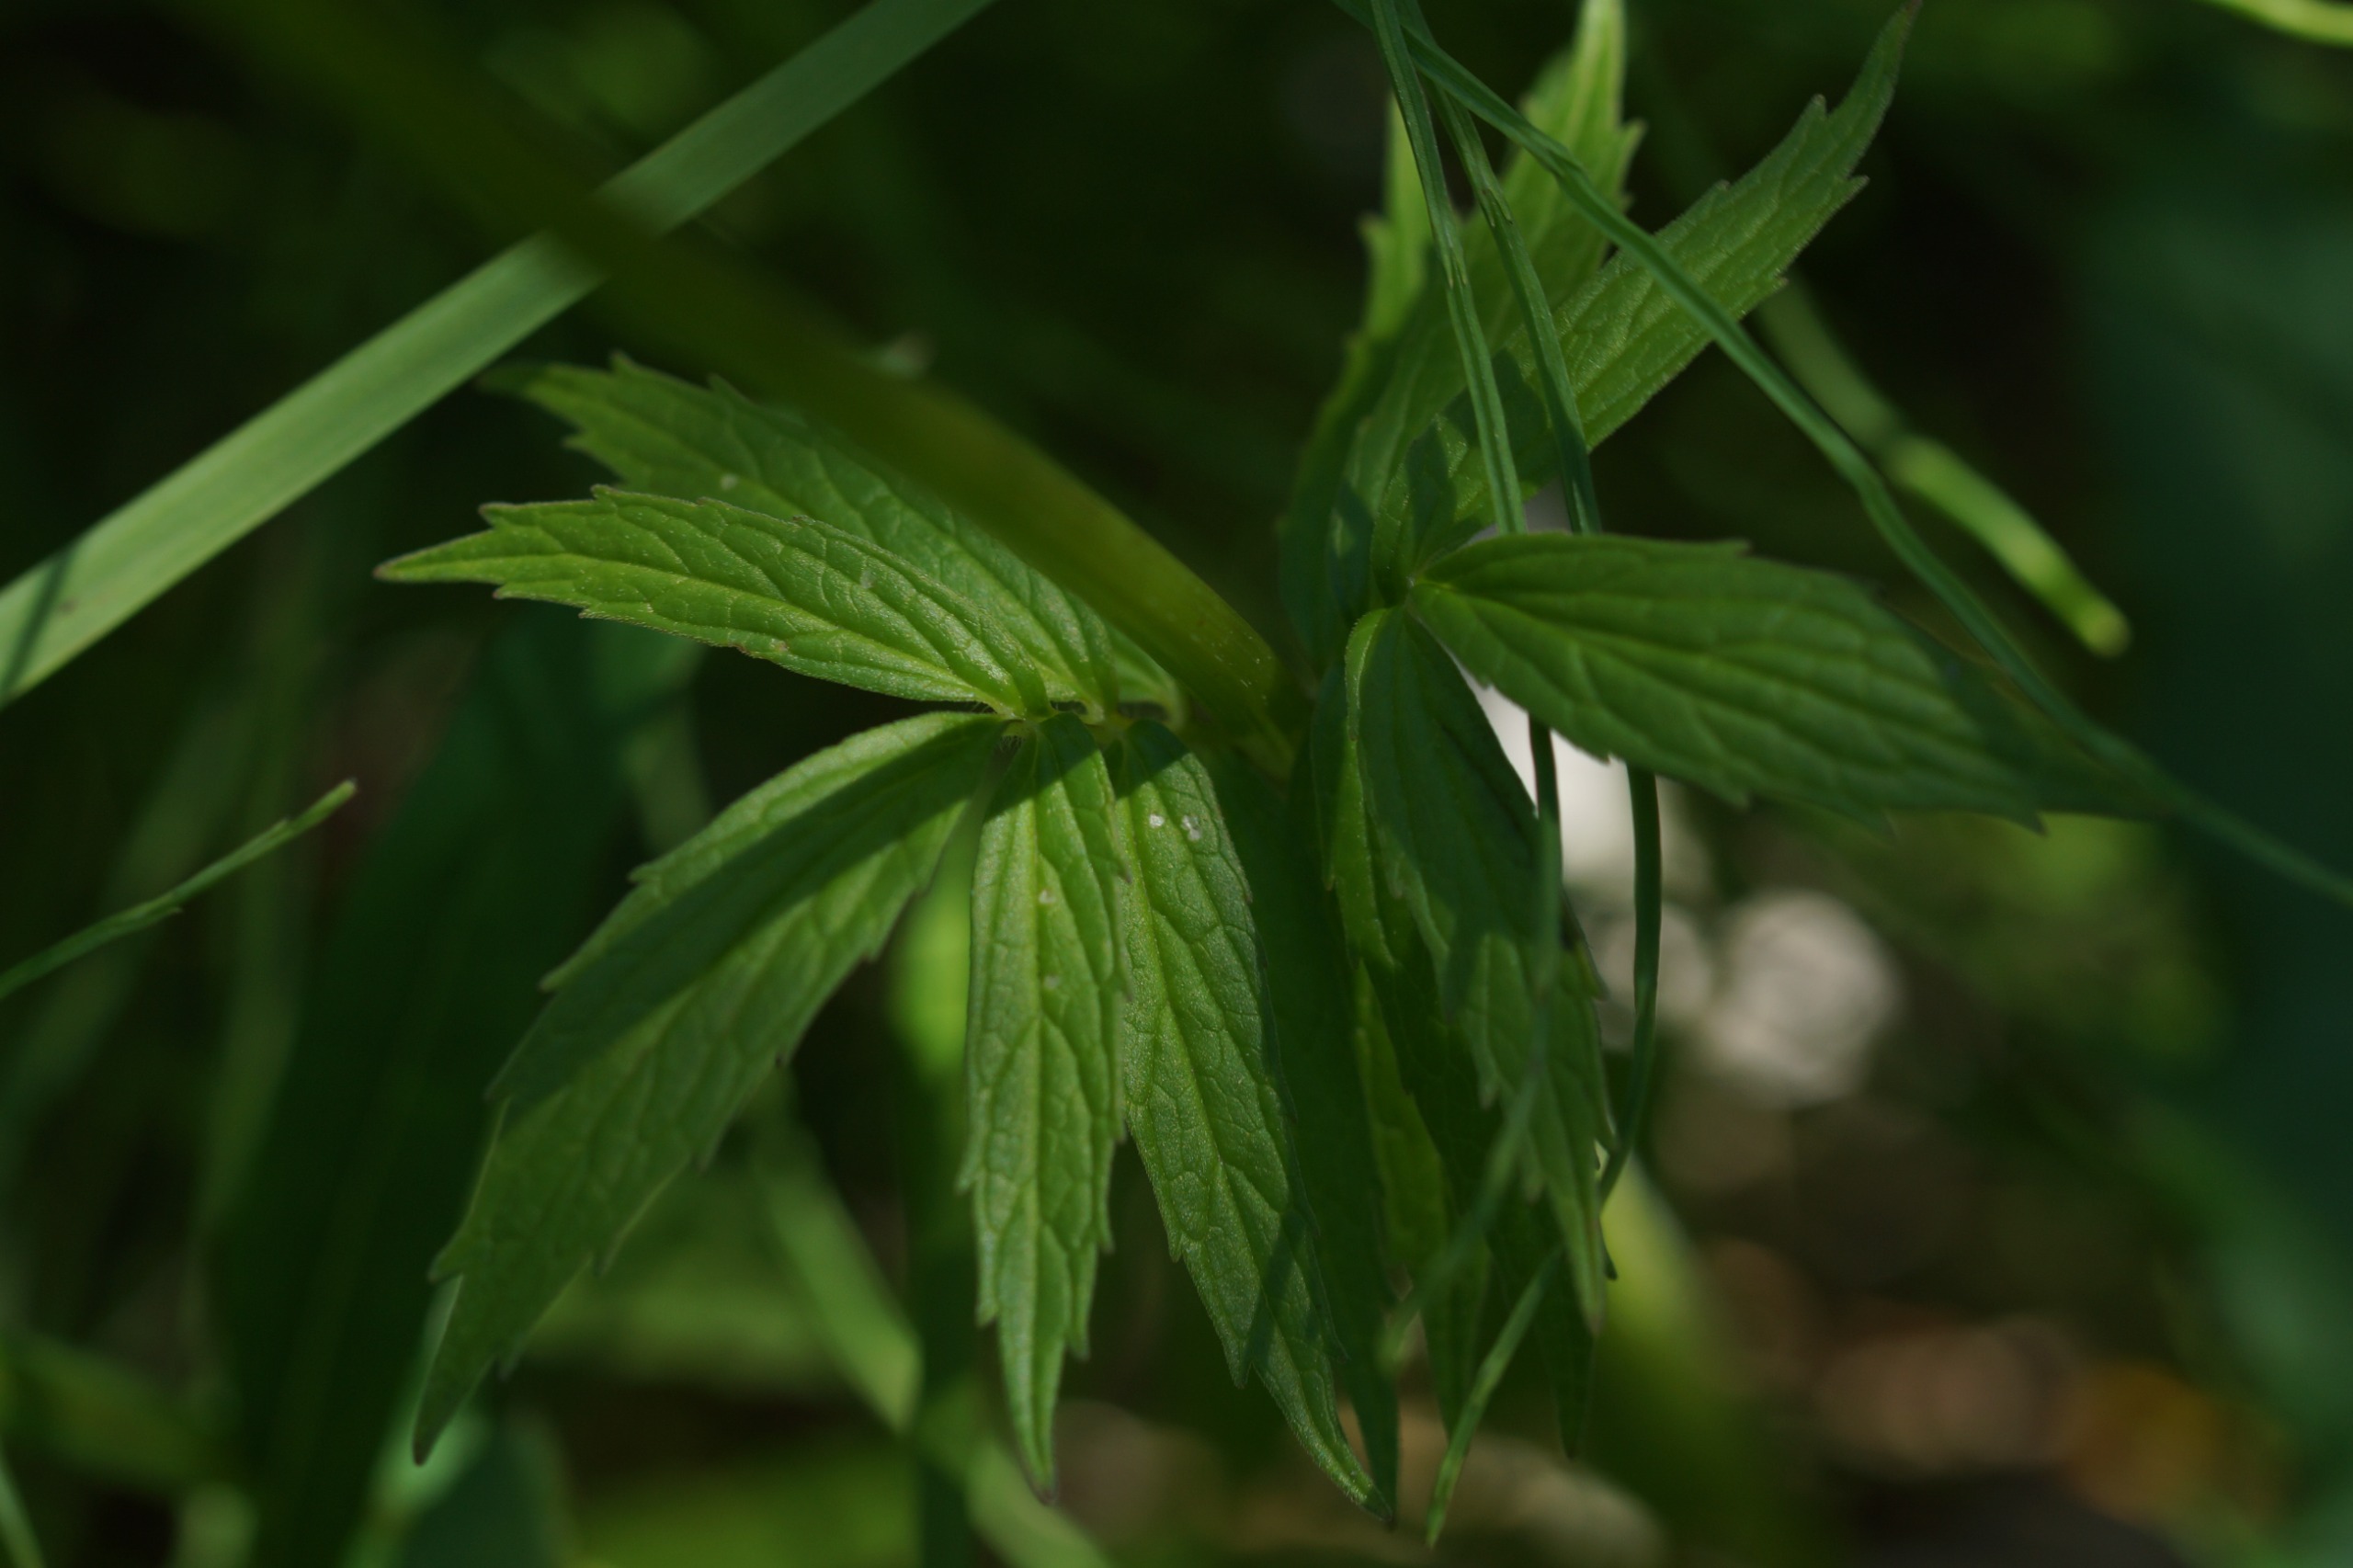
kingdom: Plantae
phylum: Tracheophyta
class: Magnoliopsida
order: Dipsacales
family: Caprifoliaceae
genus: Valeriana
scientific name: Valeriana
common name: Baldrianslægten
